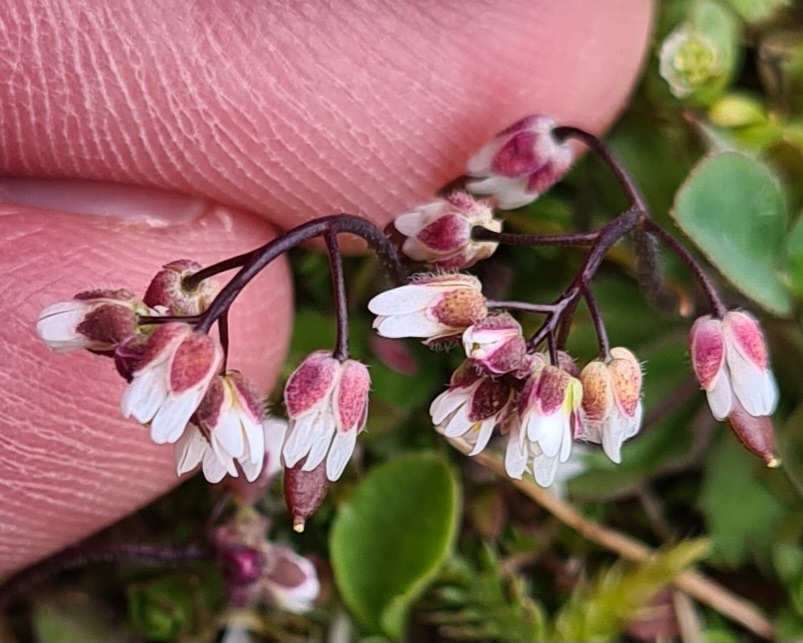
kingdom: Plantae
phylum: Tracheophyta
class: Magnoliopsida
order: Brassicales
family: Brassicaceae
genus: Draba
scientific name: Draba verna
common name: Vår-gæslingeblomst
